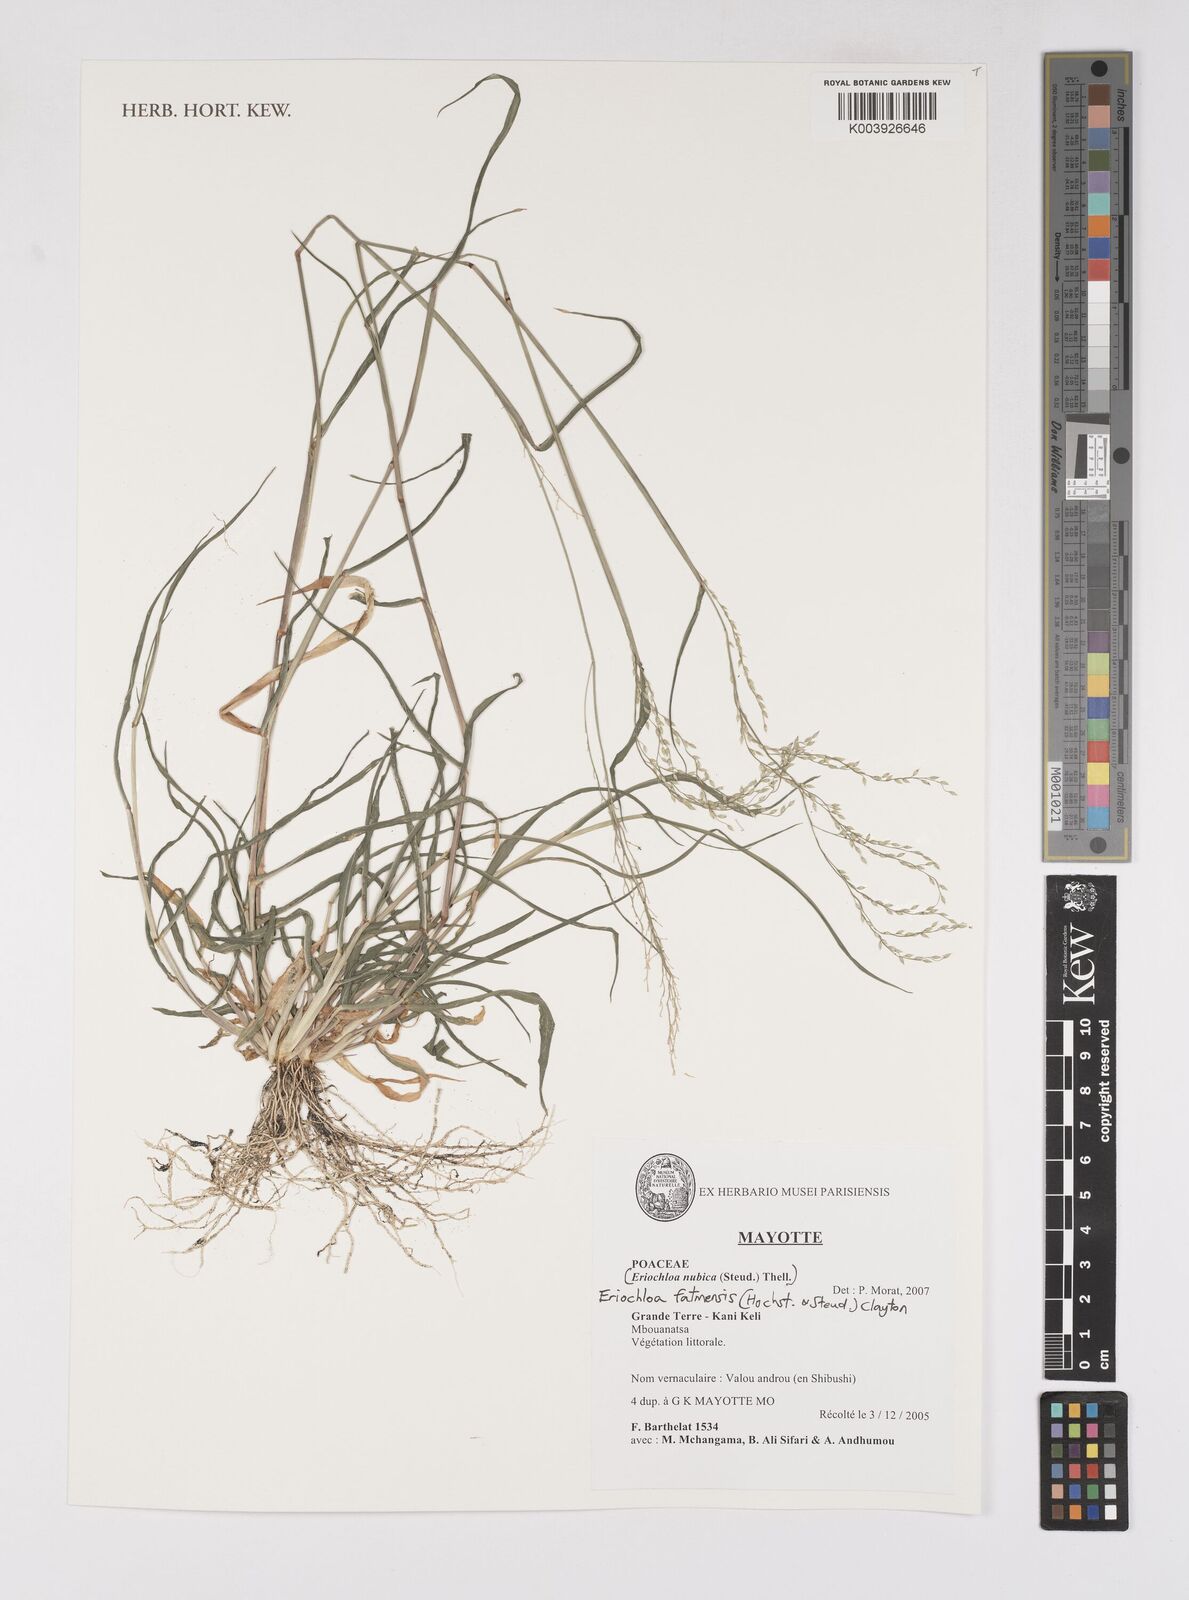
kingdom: Plantae
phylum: Tracheophyta
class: Liliopsida
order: Poales
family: Poaceae
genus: Eriochloa
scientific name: Eriochloa barbatus
